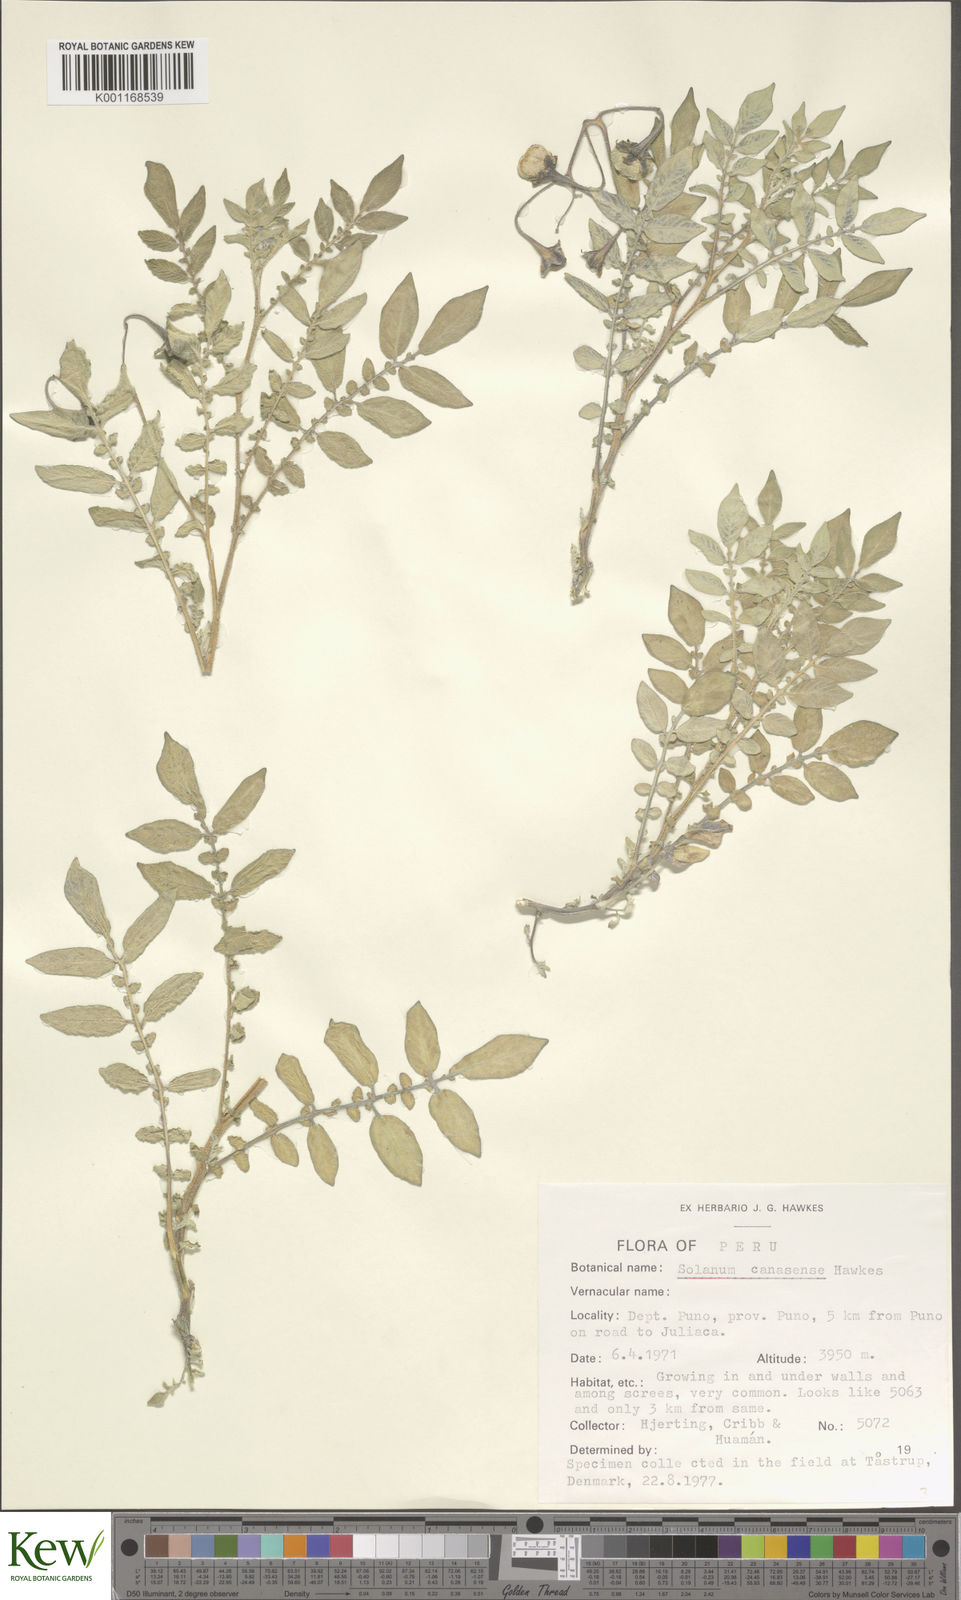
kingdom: Plantae
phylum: Tracheophyta
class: Magnoliopsida
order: Solanales
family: Solanaceae
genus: Solanum
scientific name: Solanum candolleanum
